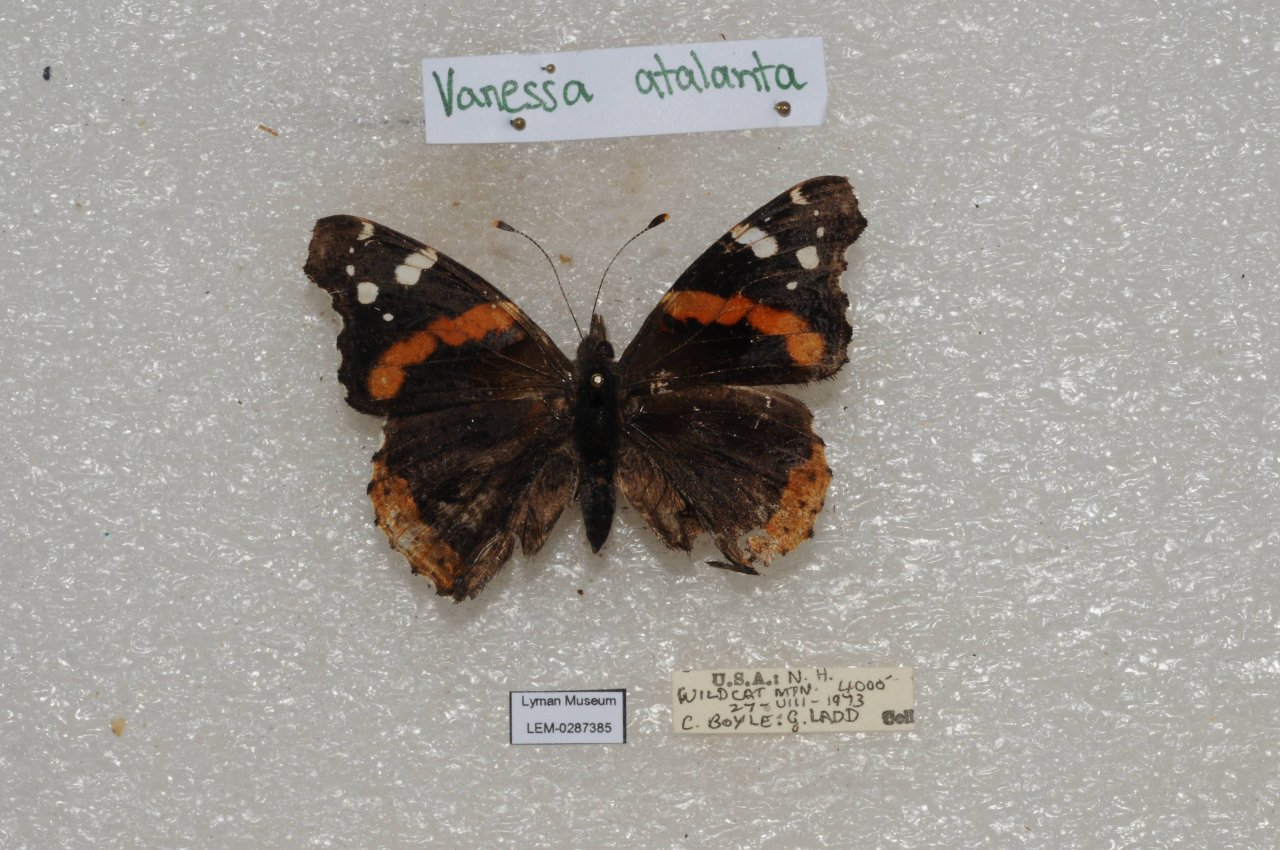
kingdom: Animalia
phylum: Arthropoda
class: Insecta
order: Lepidoptera
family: Nymphalidae
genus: Vanessa
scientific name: Vanessa atalanta
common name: Red Admiral
